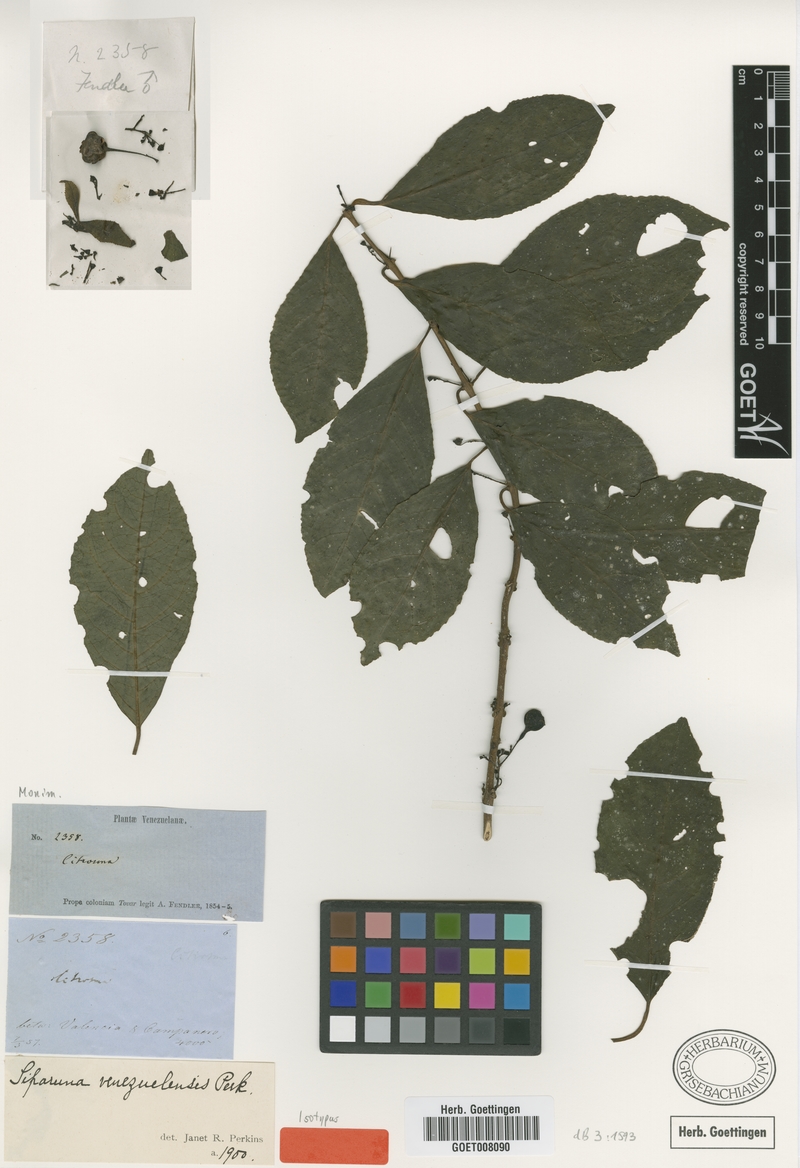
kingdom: Plantae
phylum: Tracheophyta
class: Magnoliopsida
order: Laurales
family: Siparunaceae
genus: Siparuna
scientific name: Siparuna thecaphora
